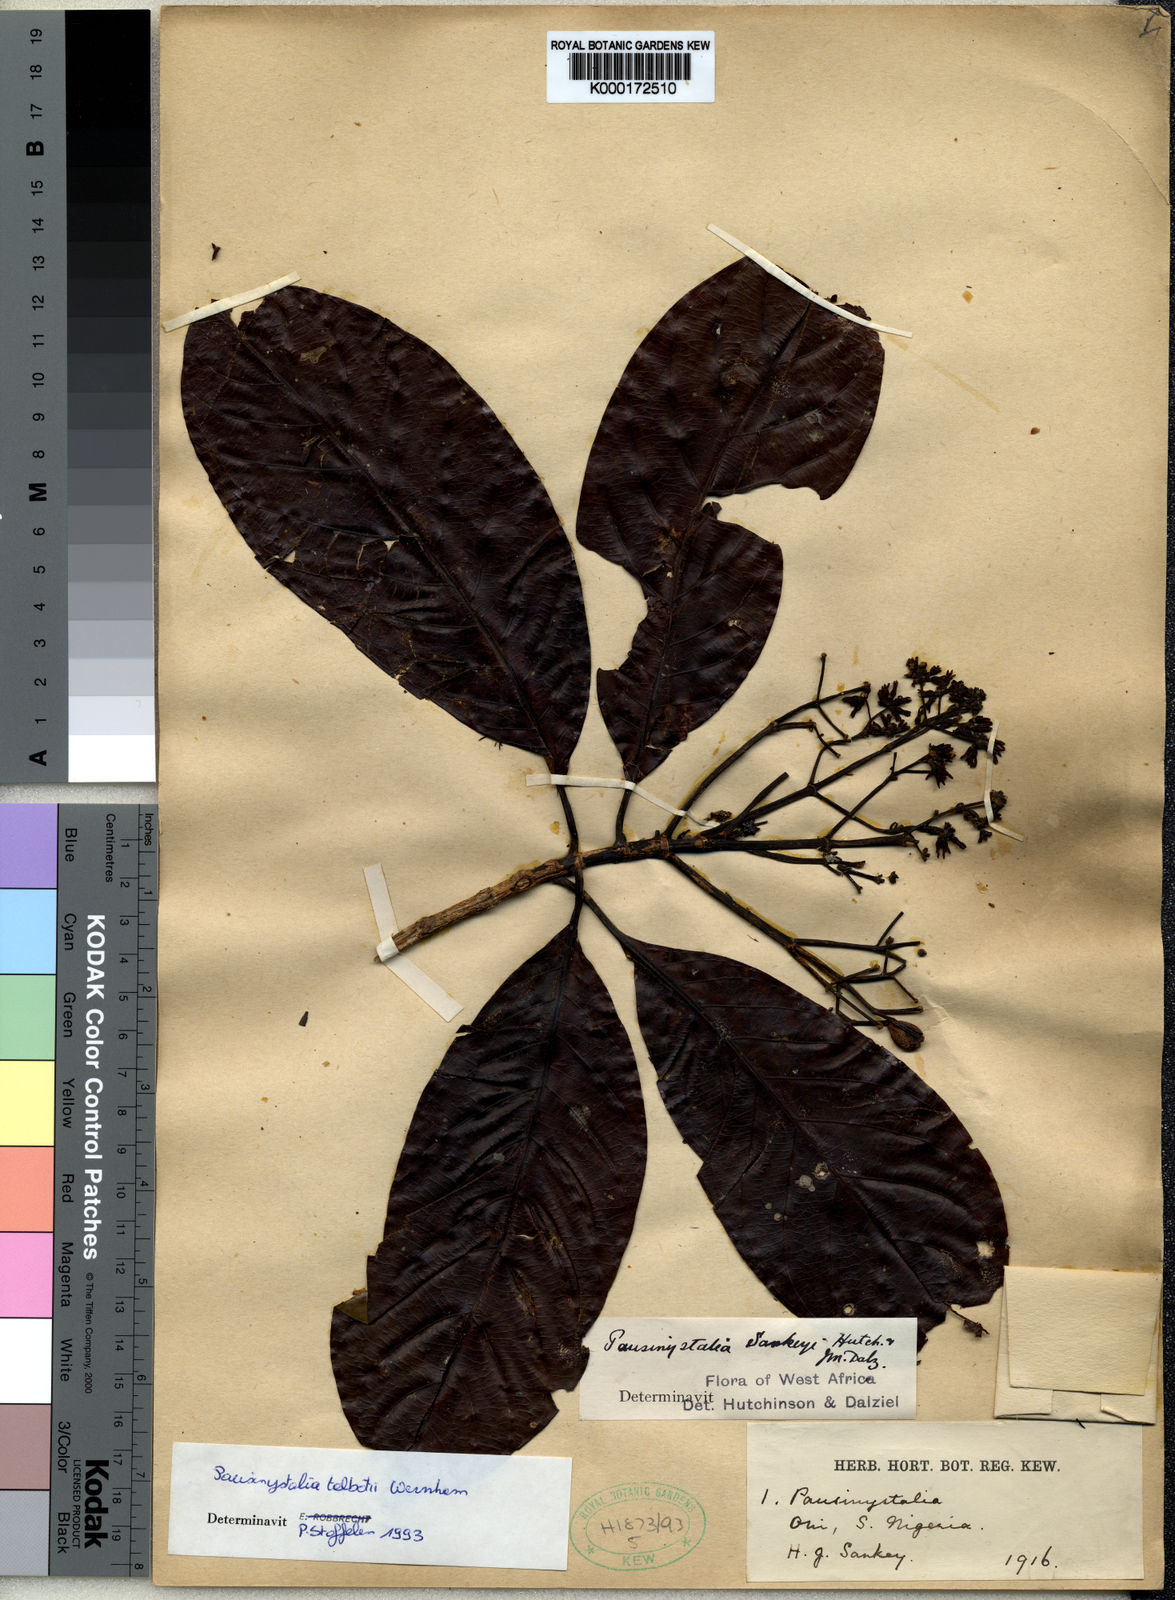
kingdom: Plantae
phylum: Tracheophyta
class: Magnoliopsida
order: Gentianales
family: Rubiaceae
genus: Corynanthe
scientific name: Corynanthe talbotii
